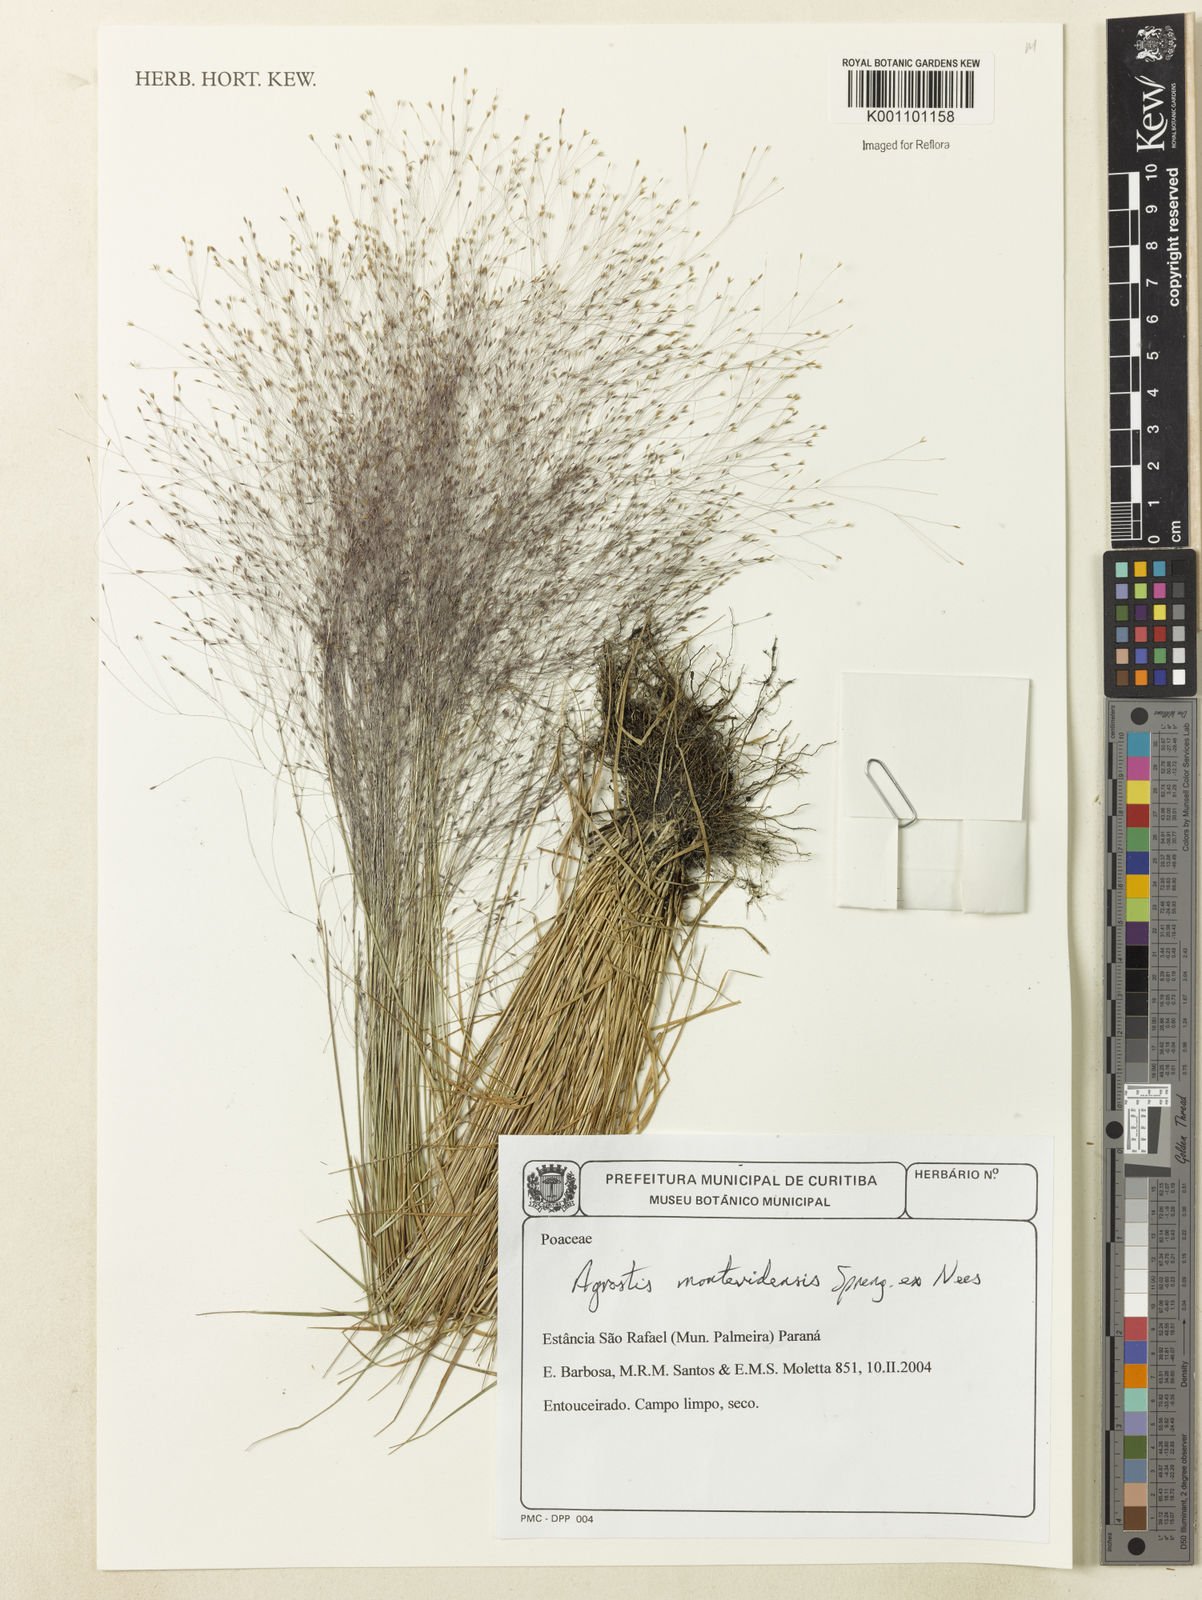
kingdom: Plantae
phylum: Tracheophyta
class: Liliopsida
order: Poales
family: Poaceae
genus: Agrostis
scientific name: Agrostis montevidensis
